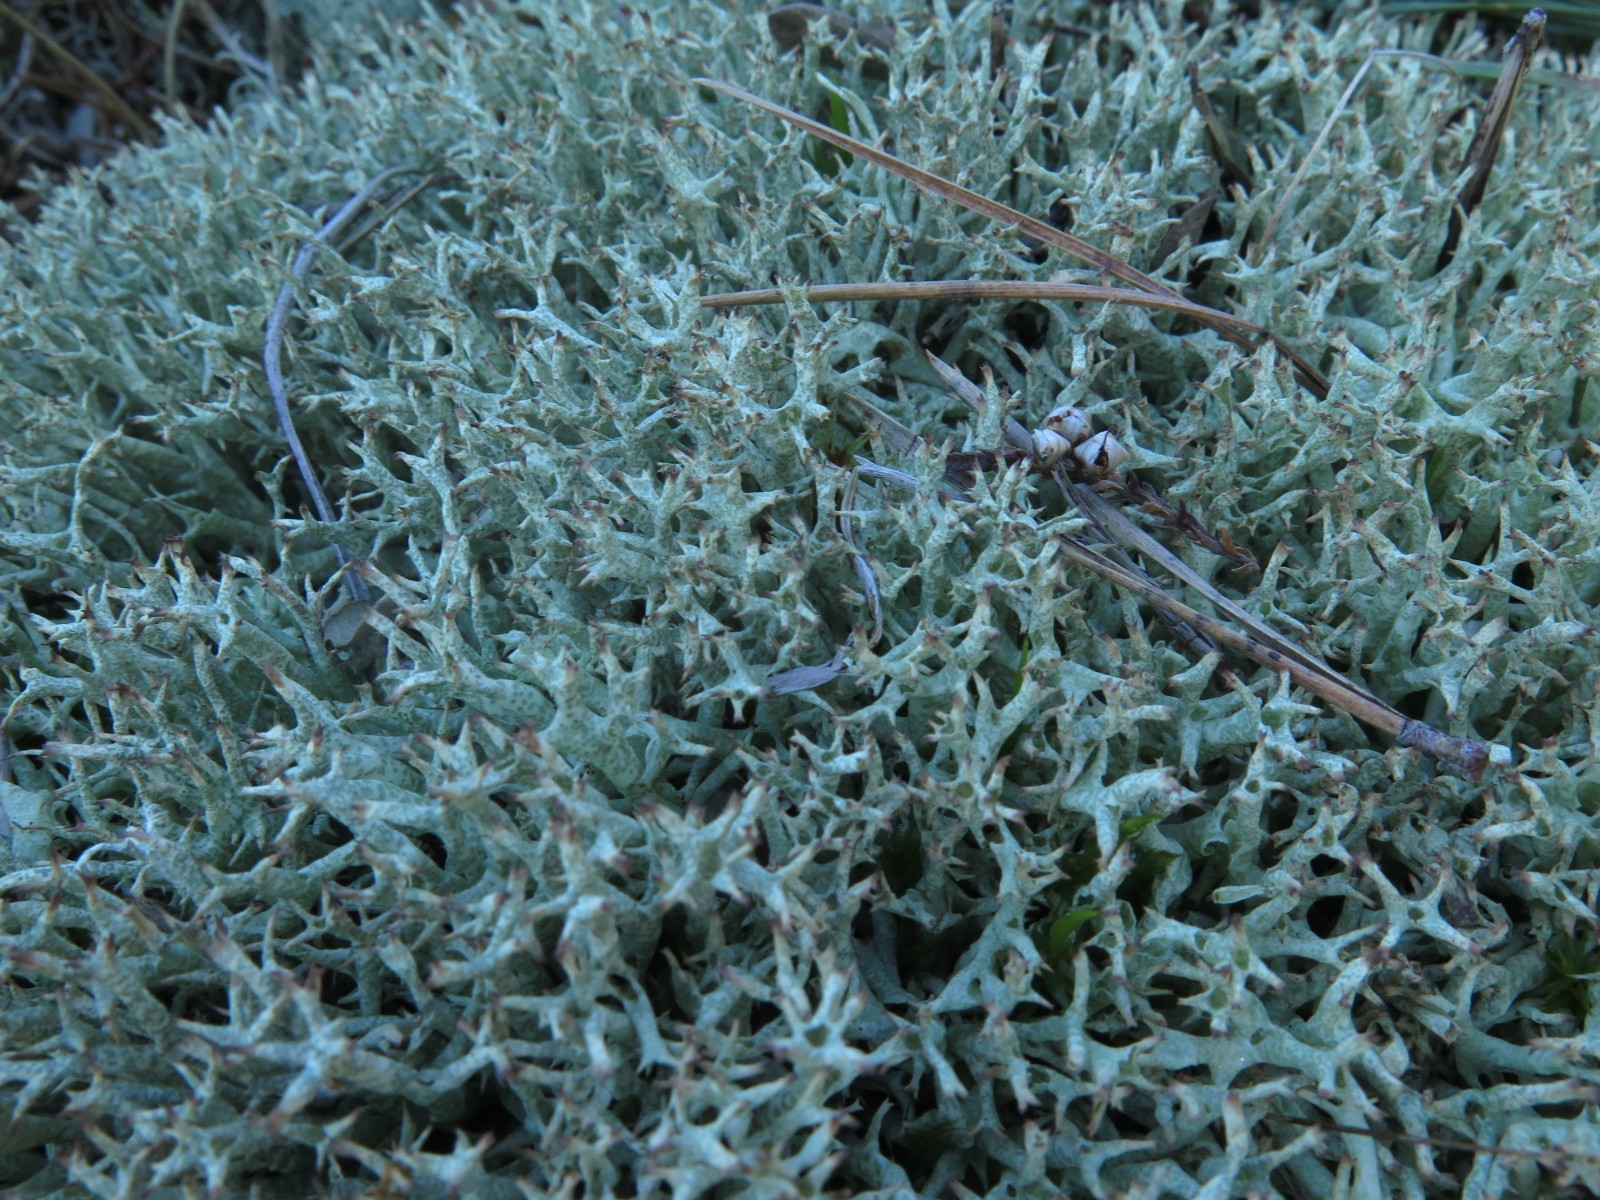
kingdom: Fungi
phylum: Ascomycota
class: Lecanoromycetes
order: Lecanorales
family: Cladoniaceae
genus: Cladonia
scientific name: Cladonia rangiformis
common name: spættet bægerlav
